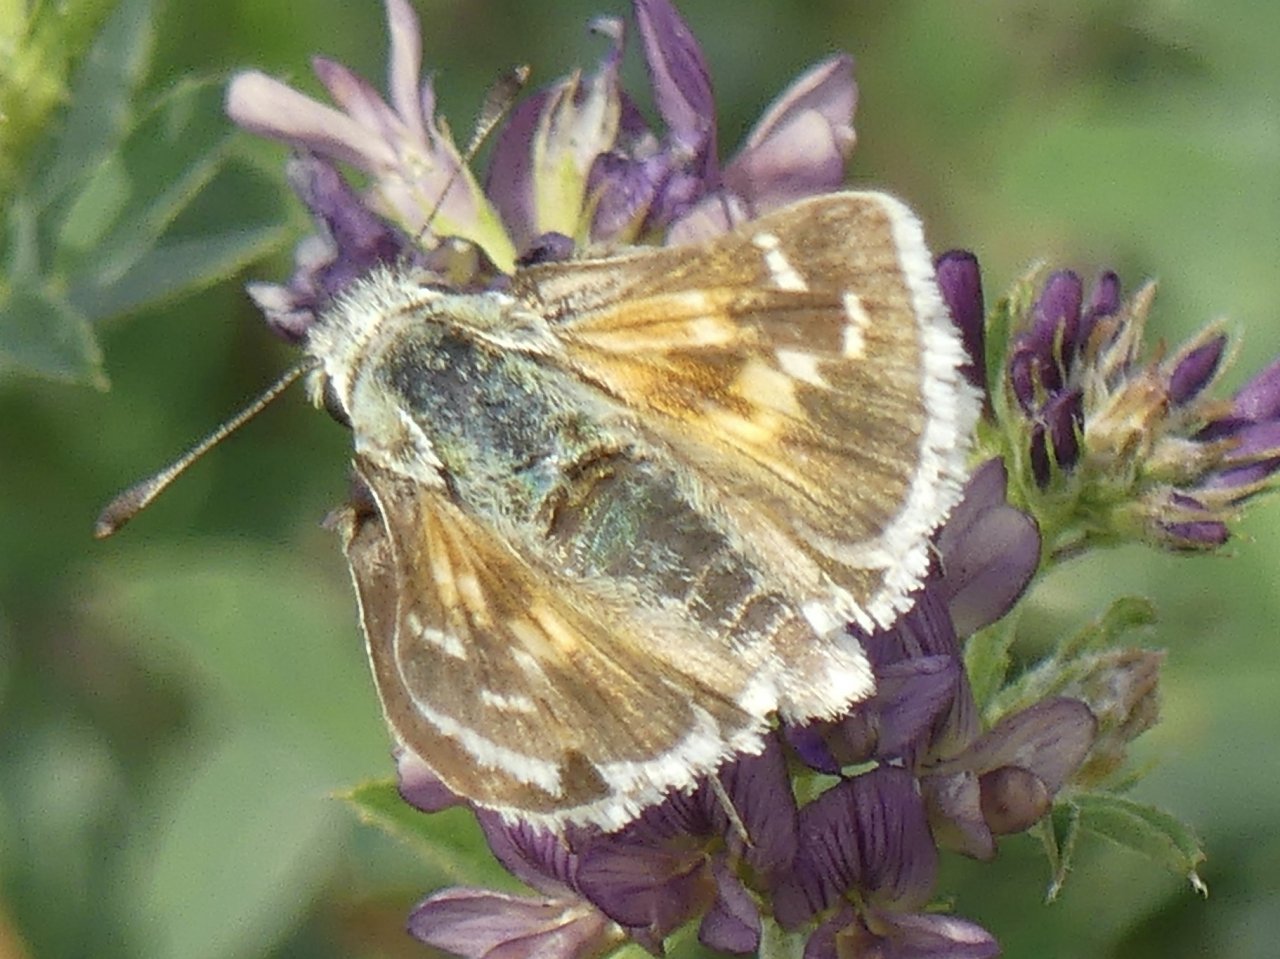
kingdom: Animalia
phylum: Arthropoda
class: Insecta
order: Lepidoptera
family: Hesperiidae
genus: Hesperia
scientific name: Hesperia comma
